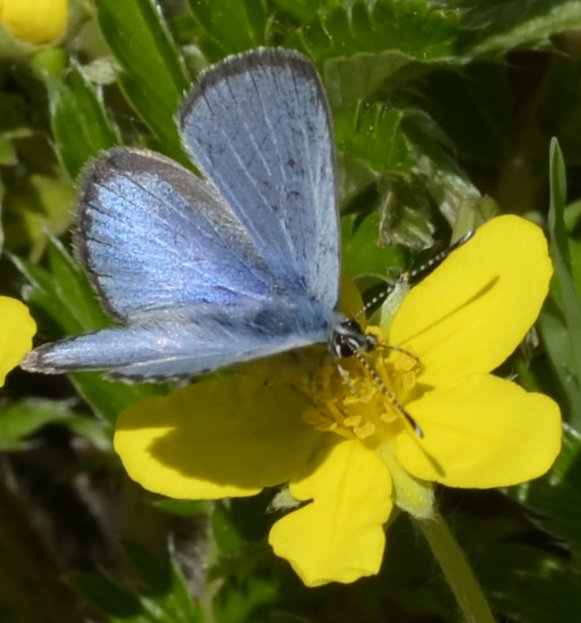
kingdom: Animalia
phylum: Arthropoda
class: Insecta
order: Lepidoptera
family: Lycaenidae
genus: Glaucopsyche
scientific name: Glaucopsyche lygdamus
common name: Silvery Blue
